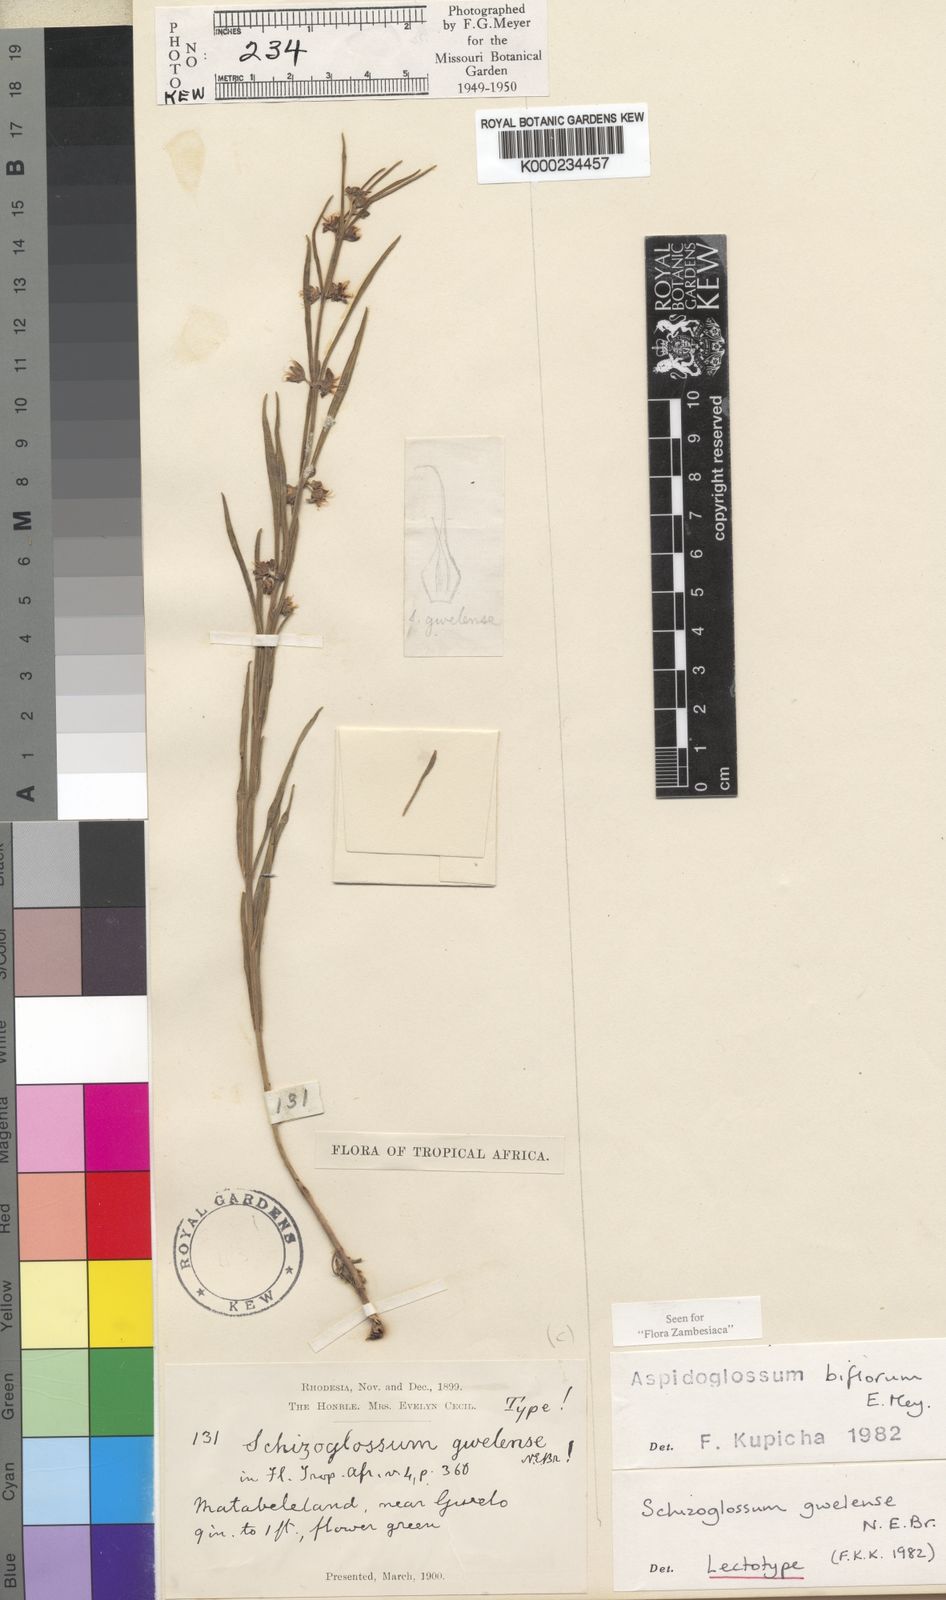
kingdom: Plantae
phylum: Tracheophyta
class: Magnoliopsida
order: Gentianales
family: Apocynaceae
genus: Aspidoglossum
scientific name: Aspidoglossum biflorum
